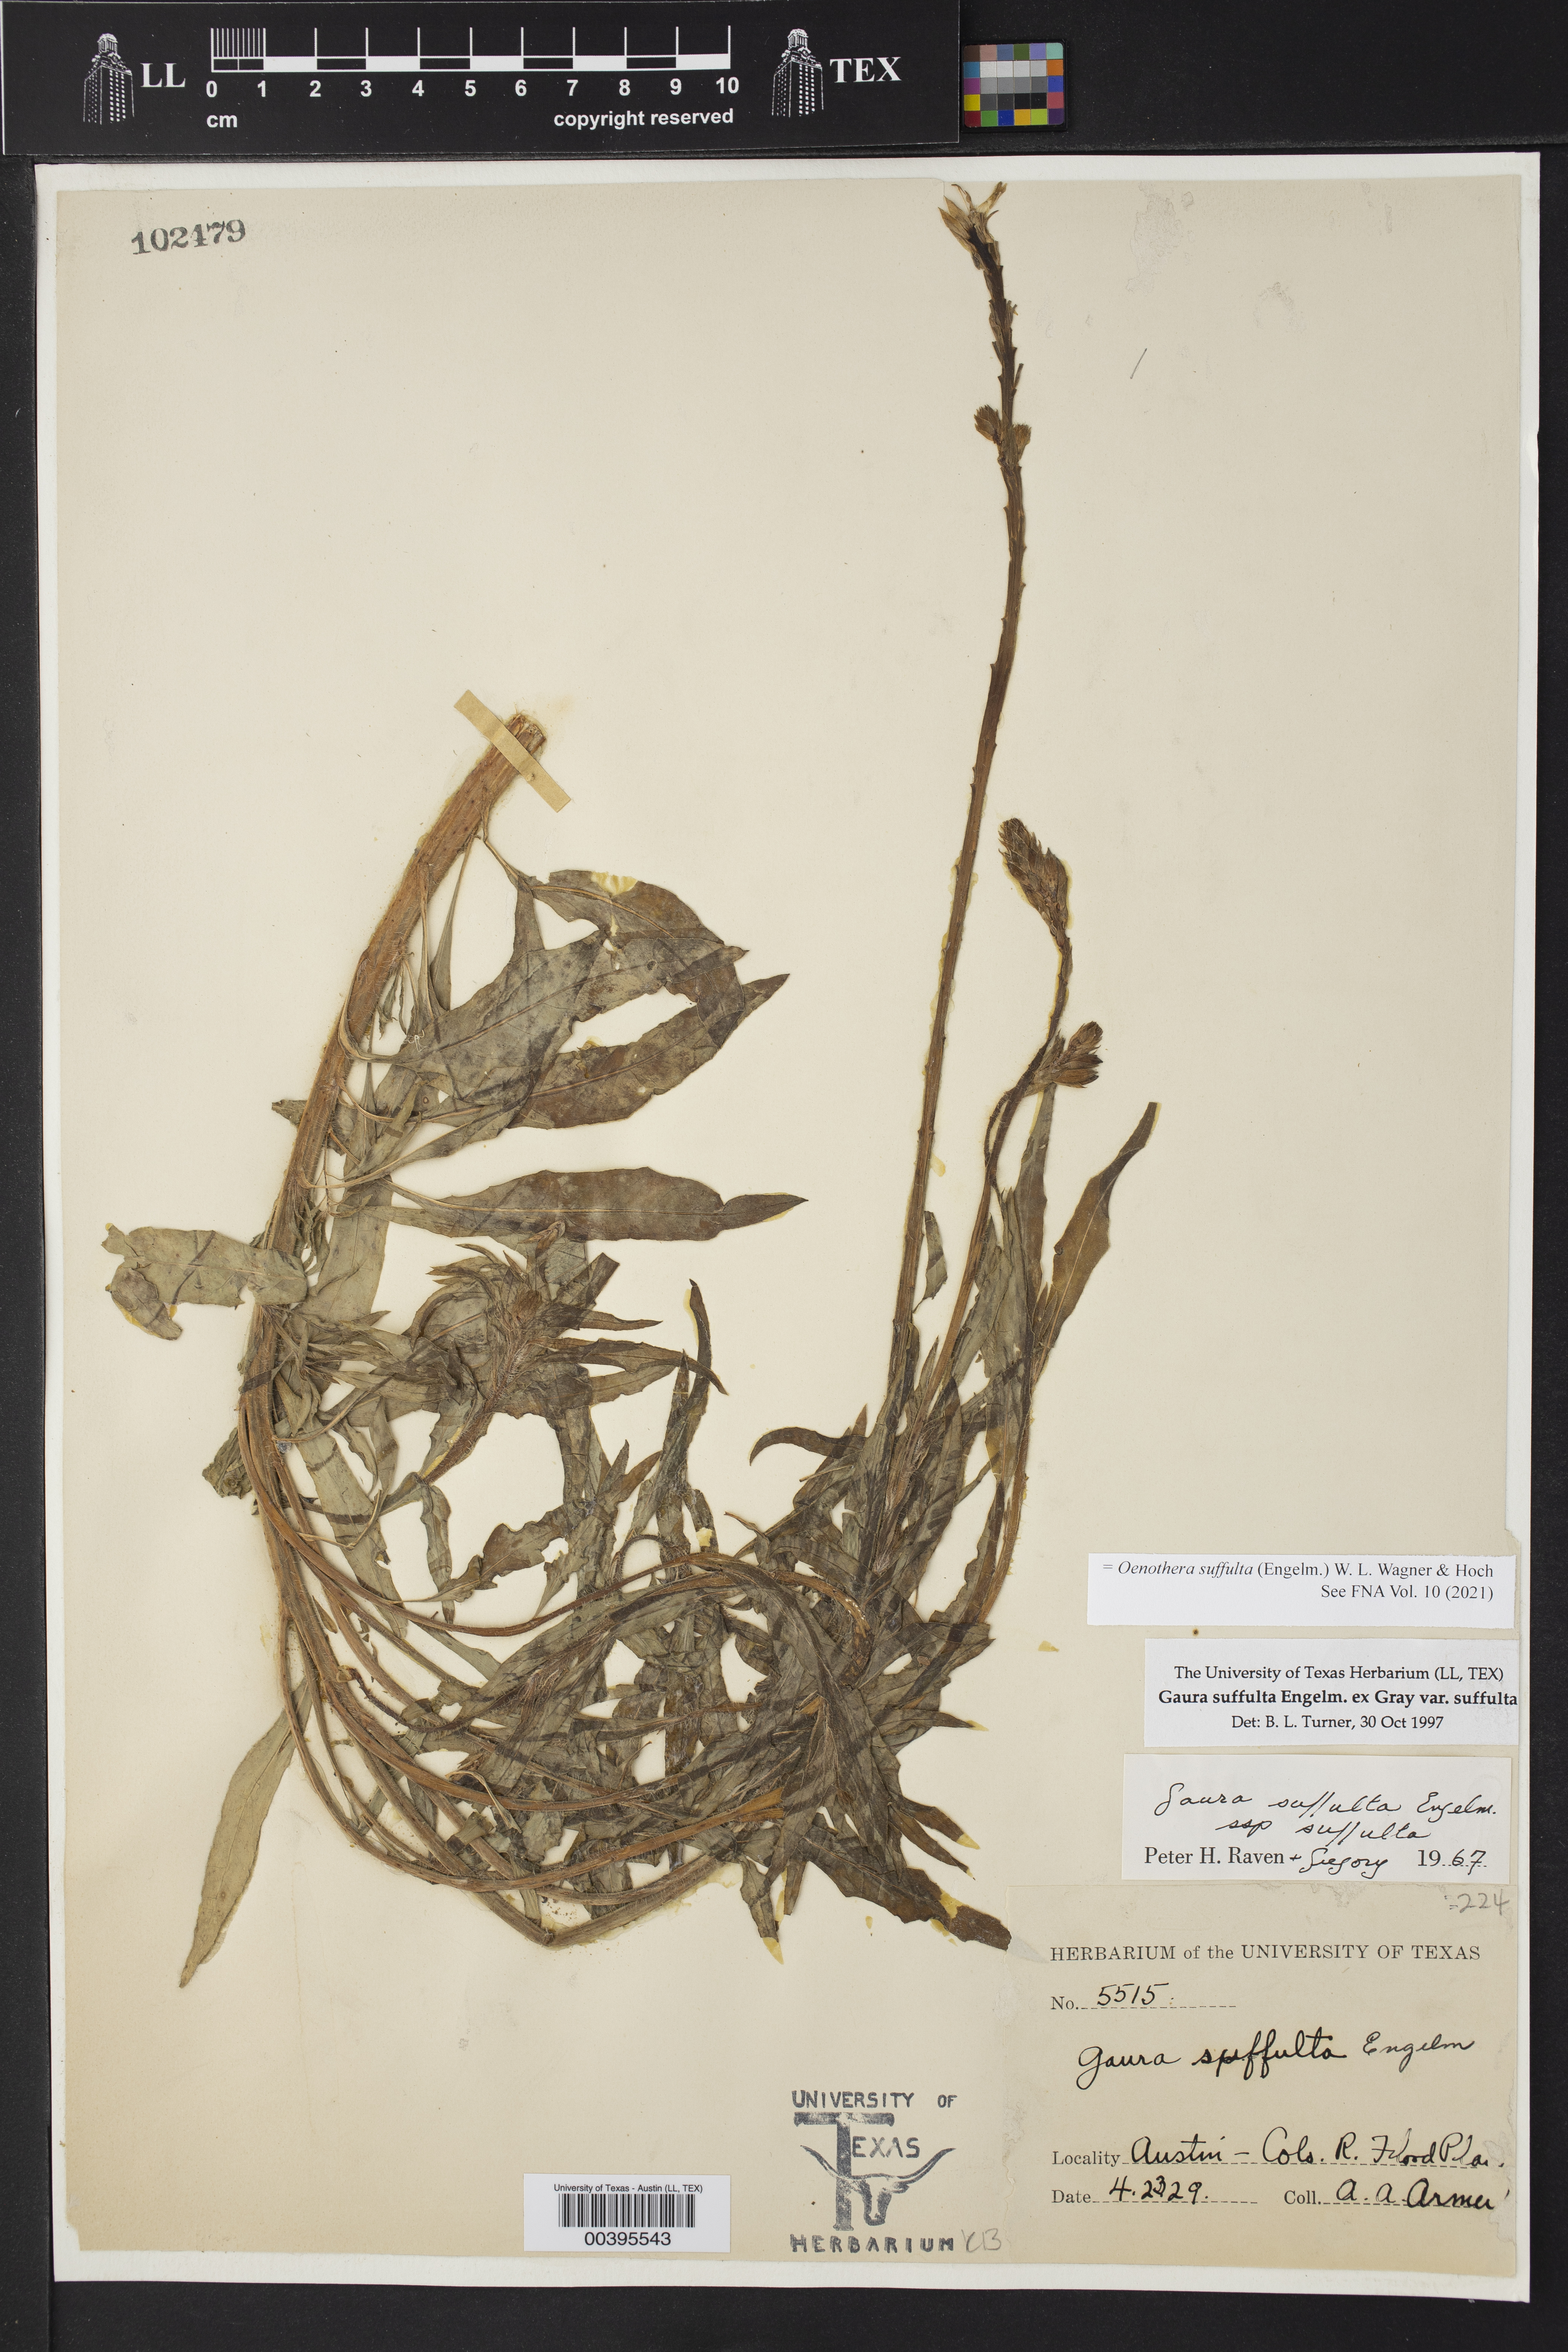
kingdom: Plantae
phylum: Tracheophyta
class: Magnoliopsida
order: Myrtales
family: Onagraceae
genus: Oenothera
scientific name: Oenothera suffulta
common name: Kisses
